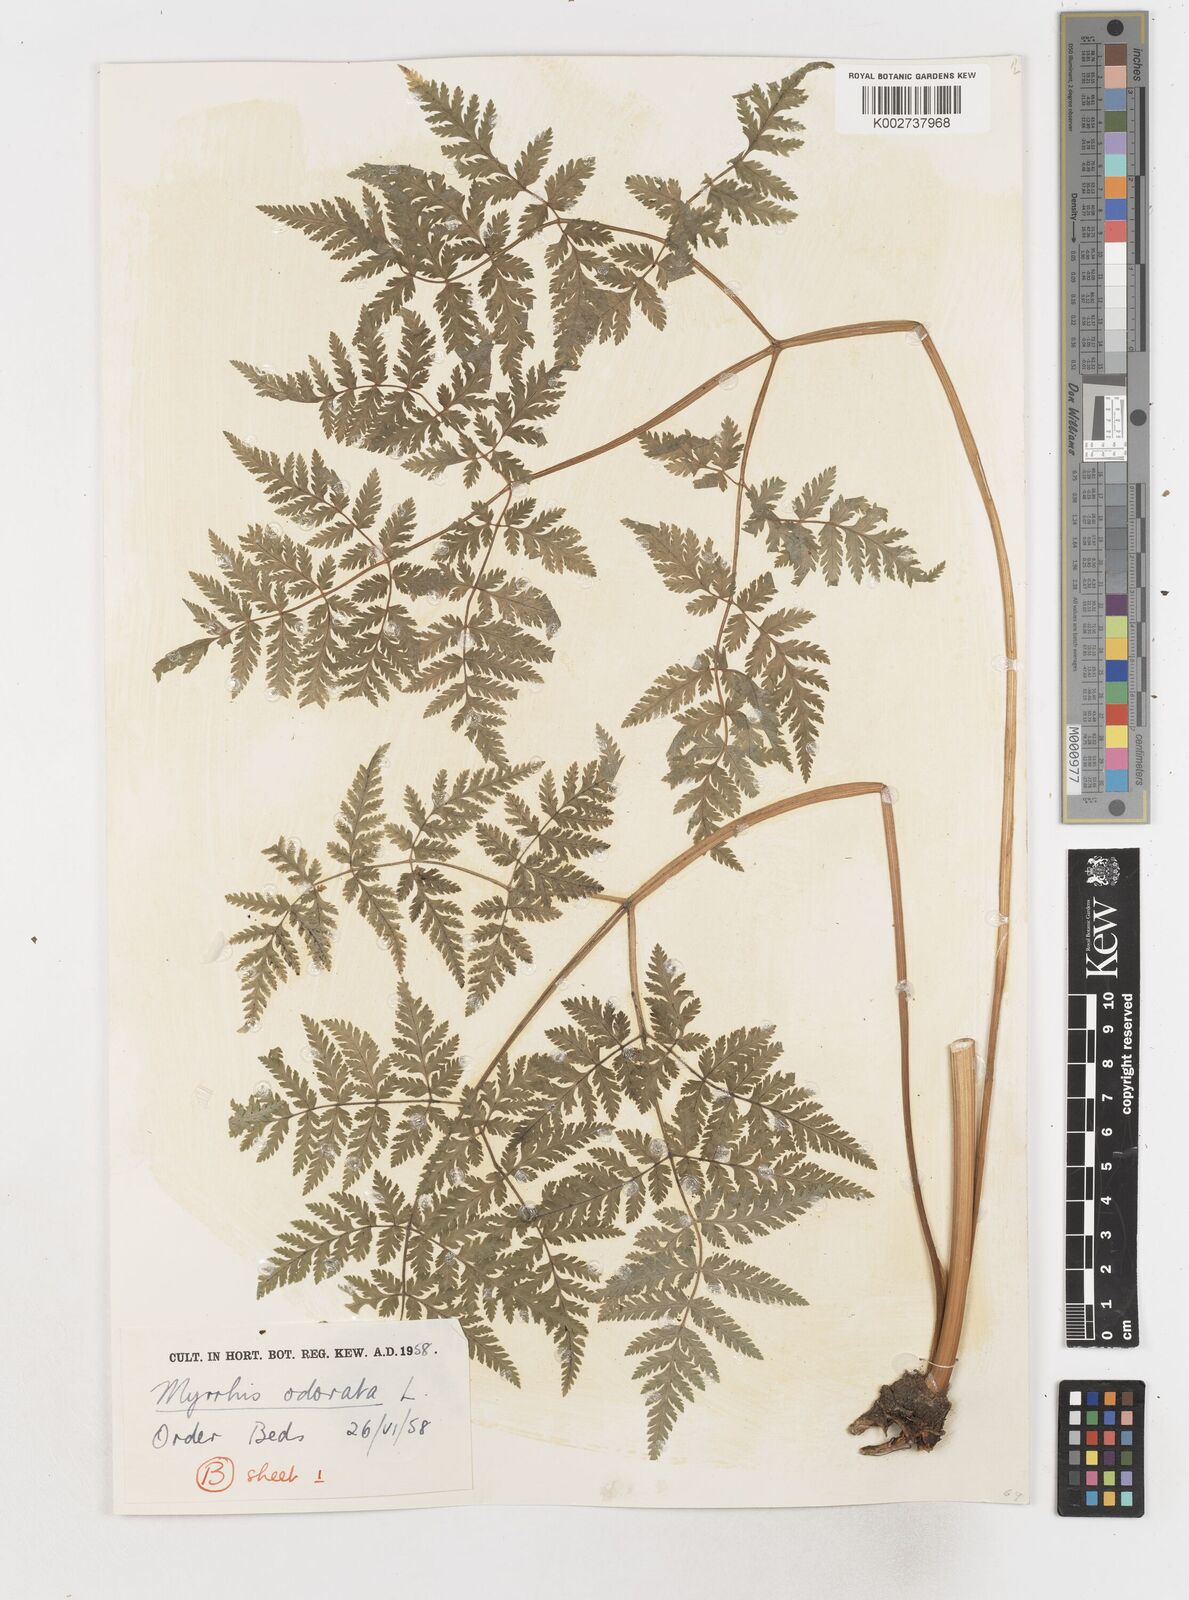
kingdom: Plantae
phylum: Tracheophyta
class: Magnoliopsida
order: Apiales
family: Apiaceae
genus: Myrrhis
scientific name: Myrrhis odorata
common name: Sweet cicely
